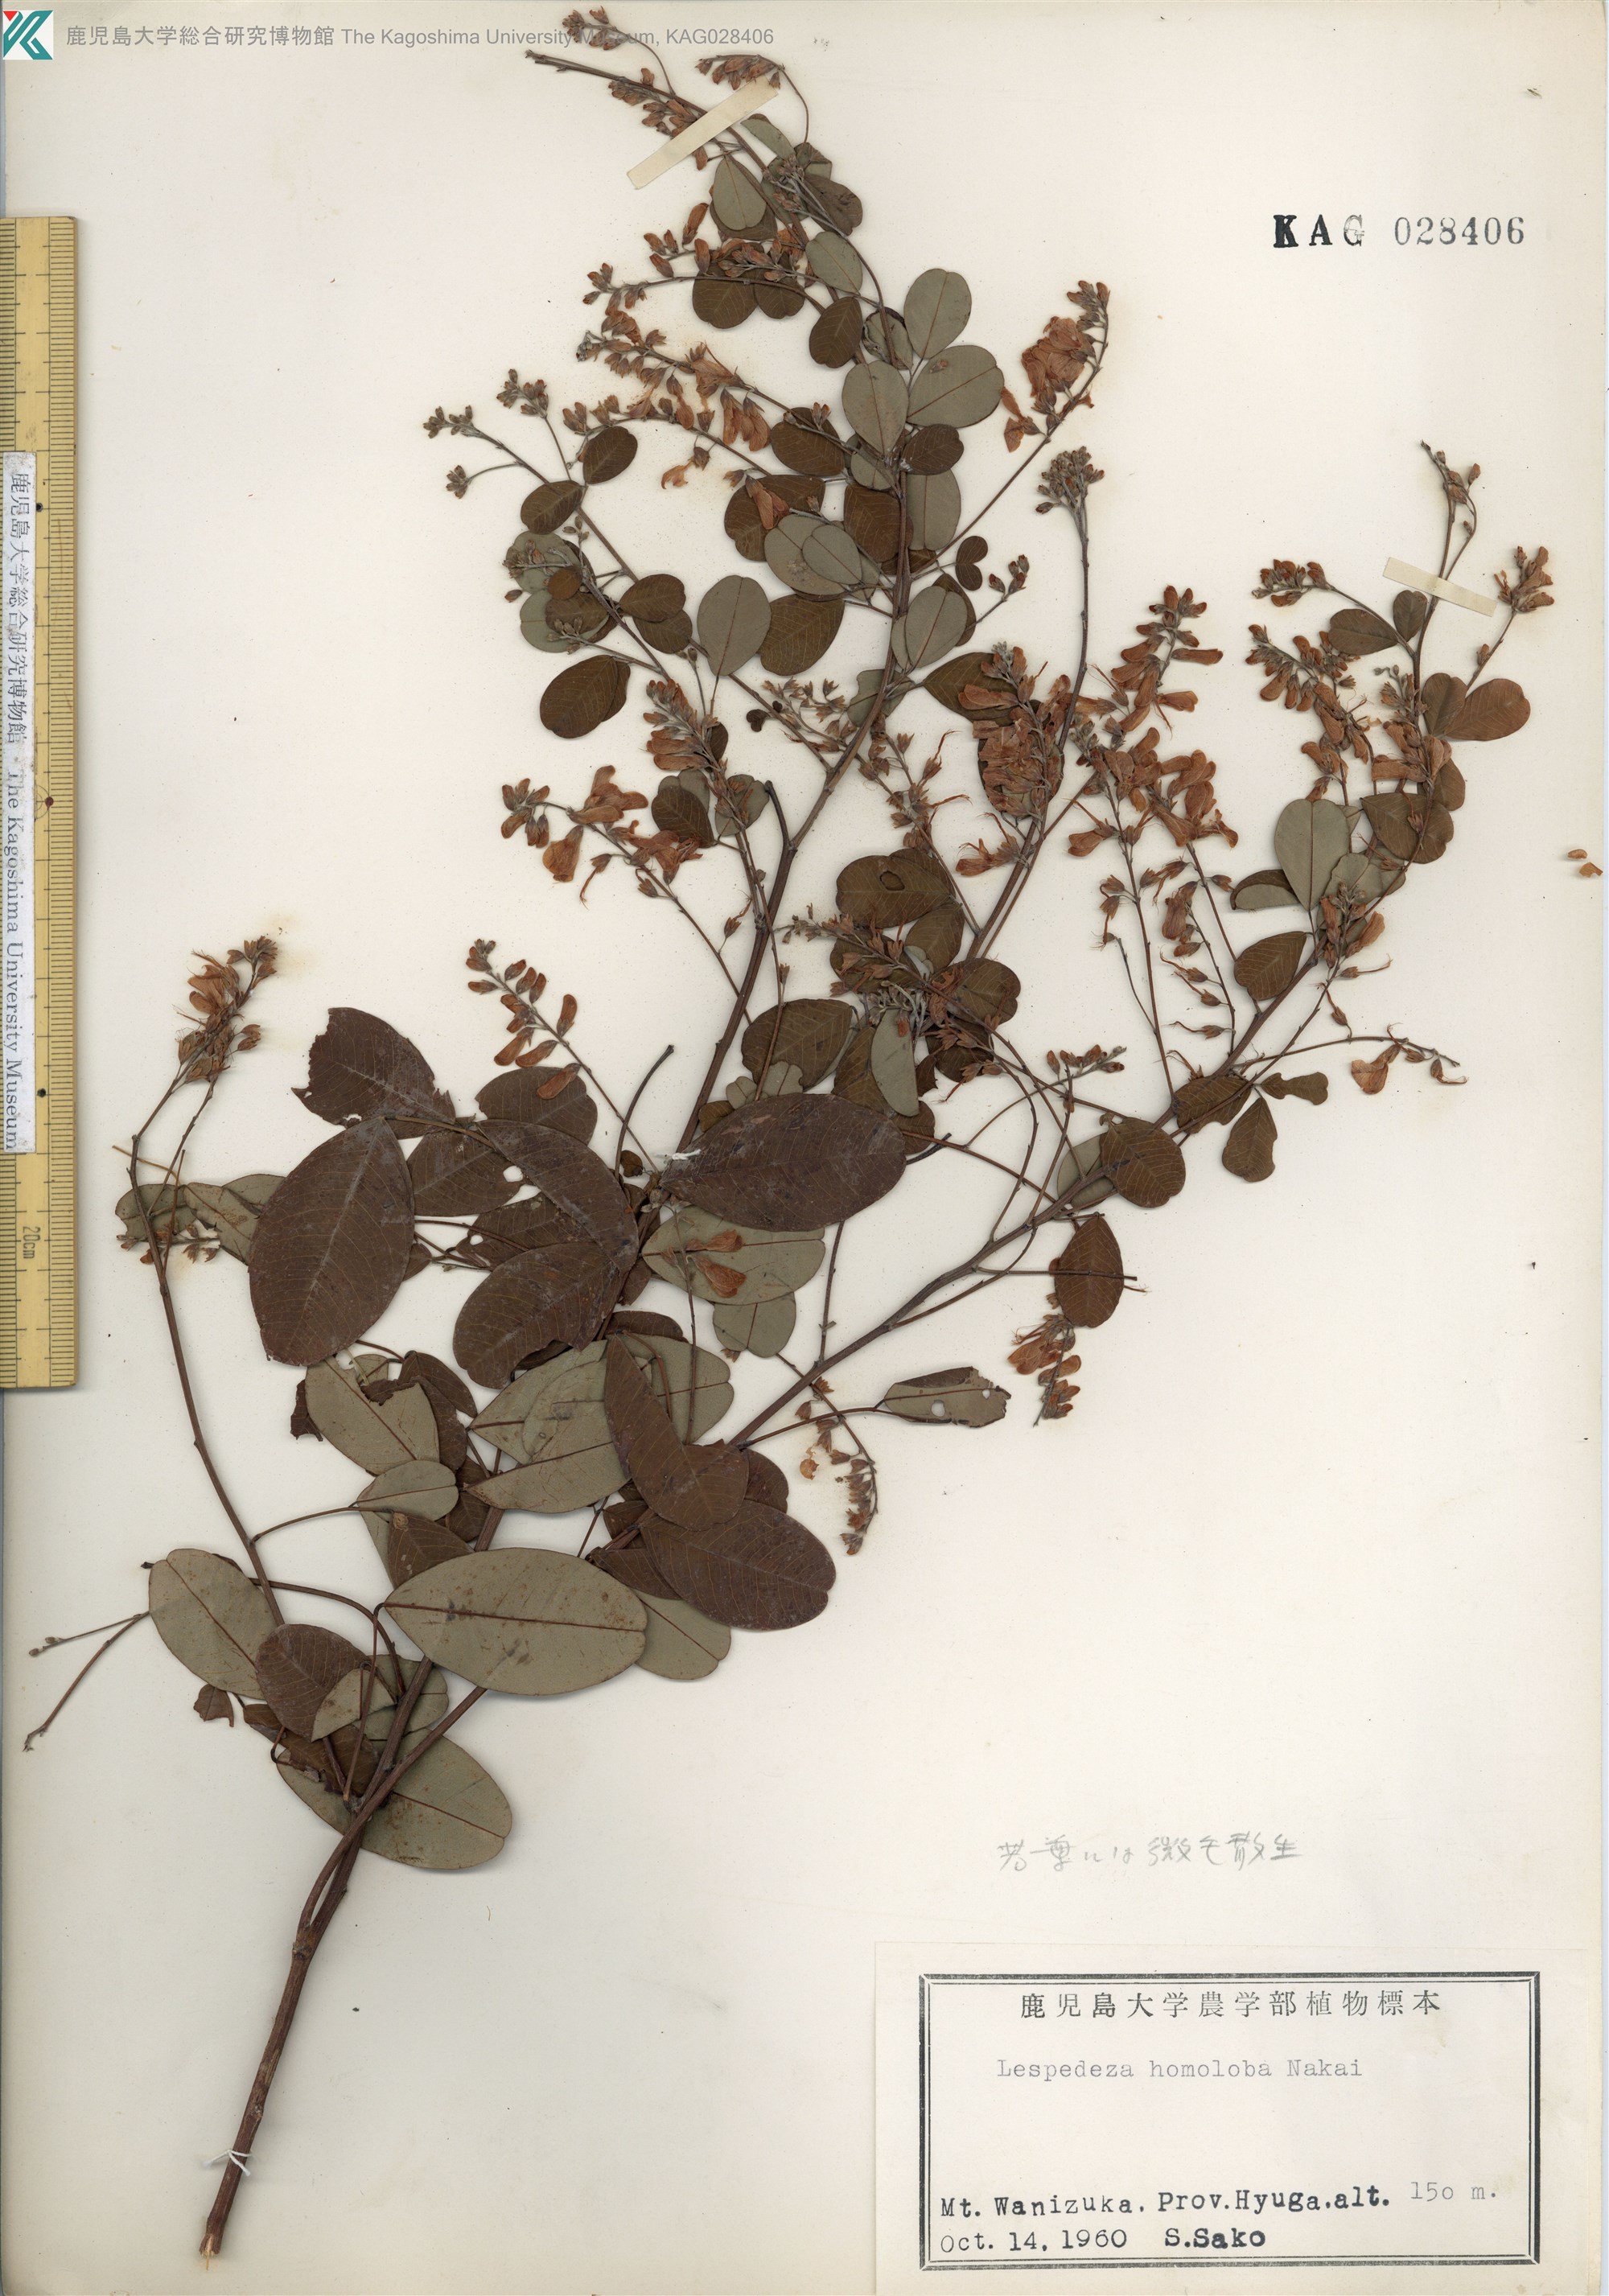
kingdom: Plantae
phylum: Tracheophyta
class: Magnoliopsida
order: Fabales
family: Fabaceae
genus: Lespedeza
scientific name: Lespedeza homoloba
